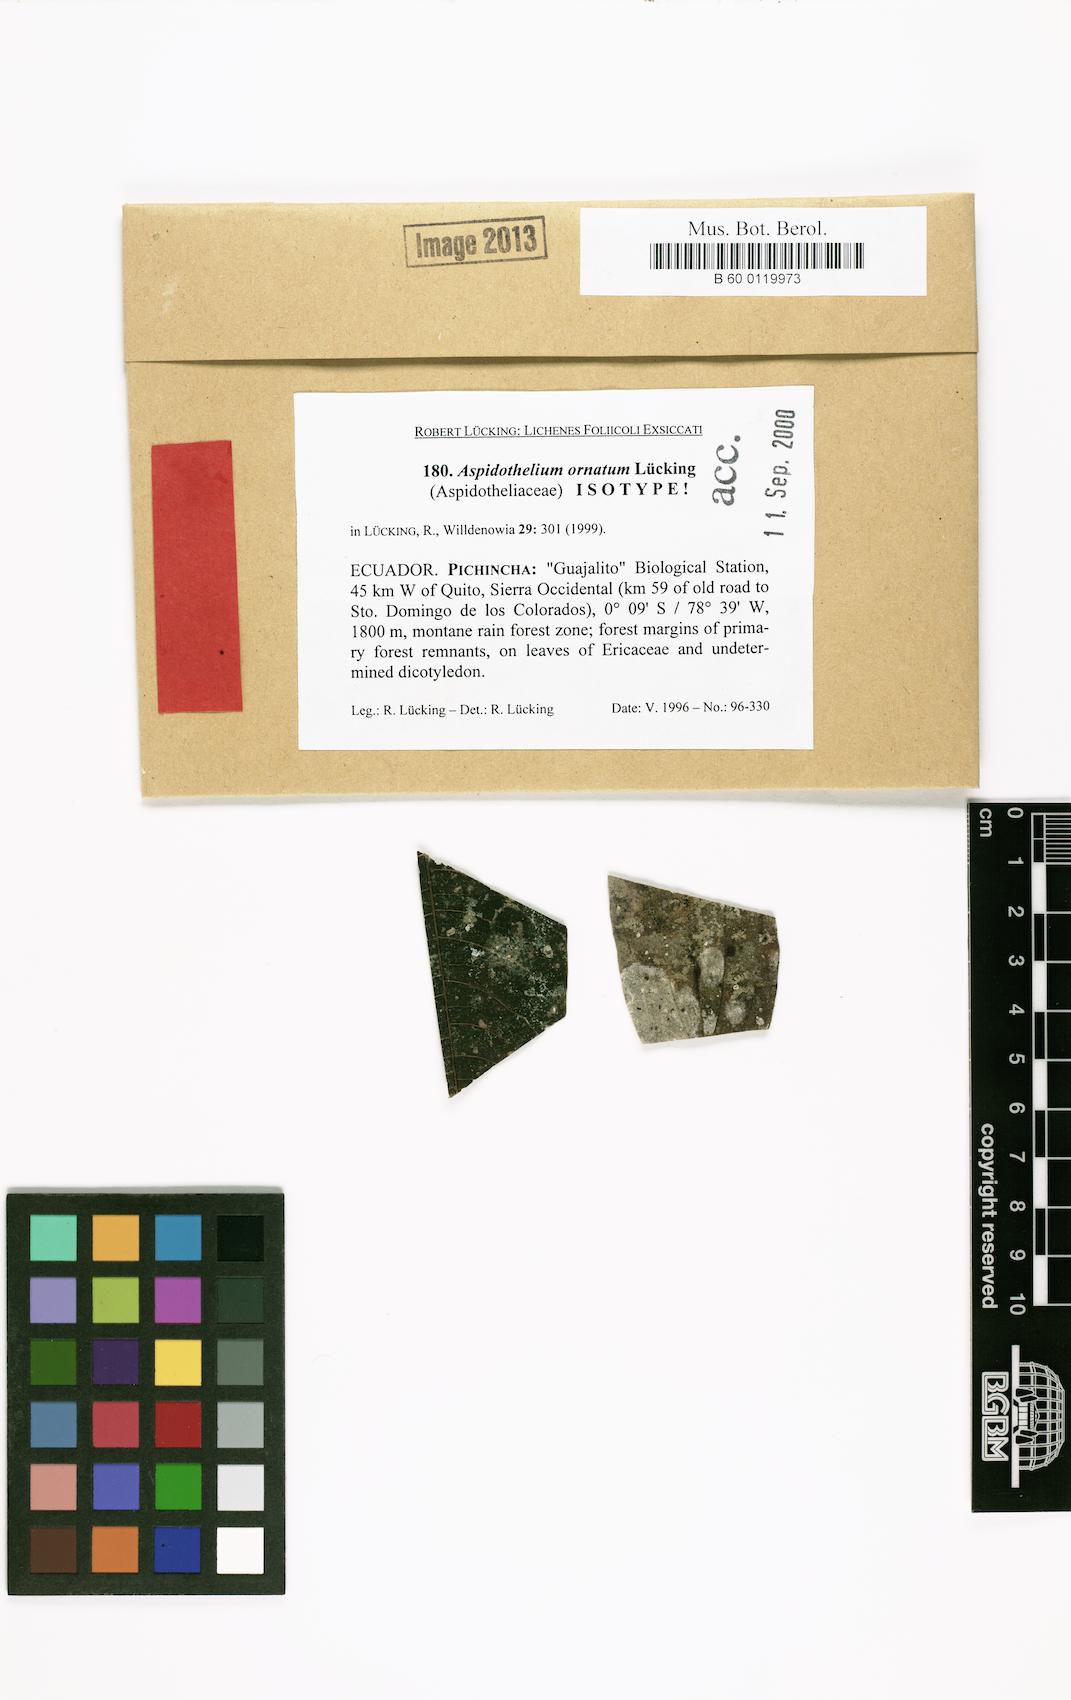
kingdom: Fungi
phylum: Ascomycota
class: Lecanoromycetes
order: Ostropales
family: Thelenellaceae
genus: Aspidothelium
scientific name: Aspidothelium ornatum
